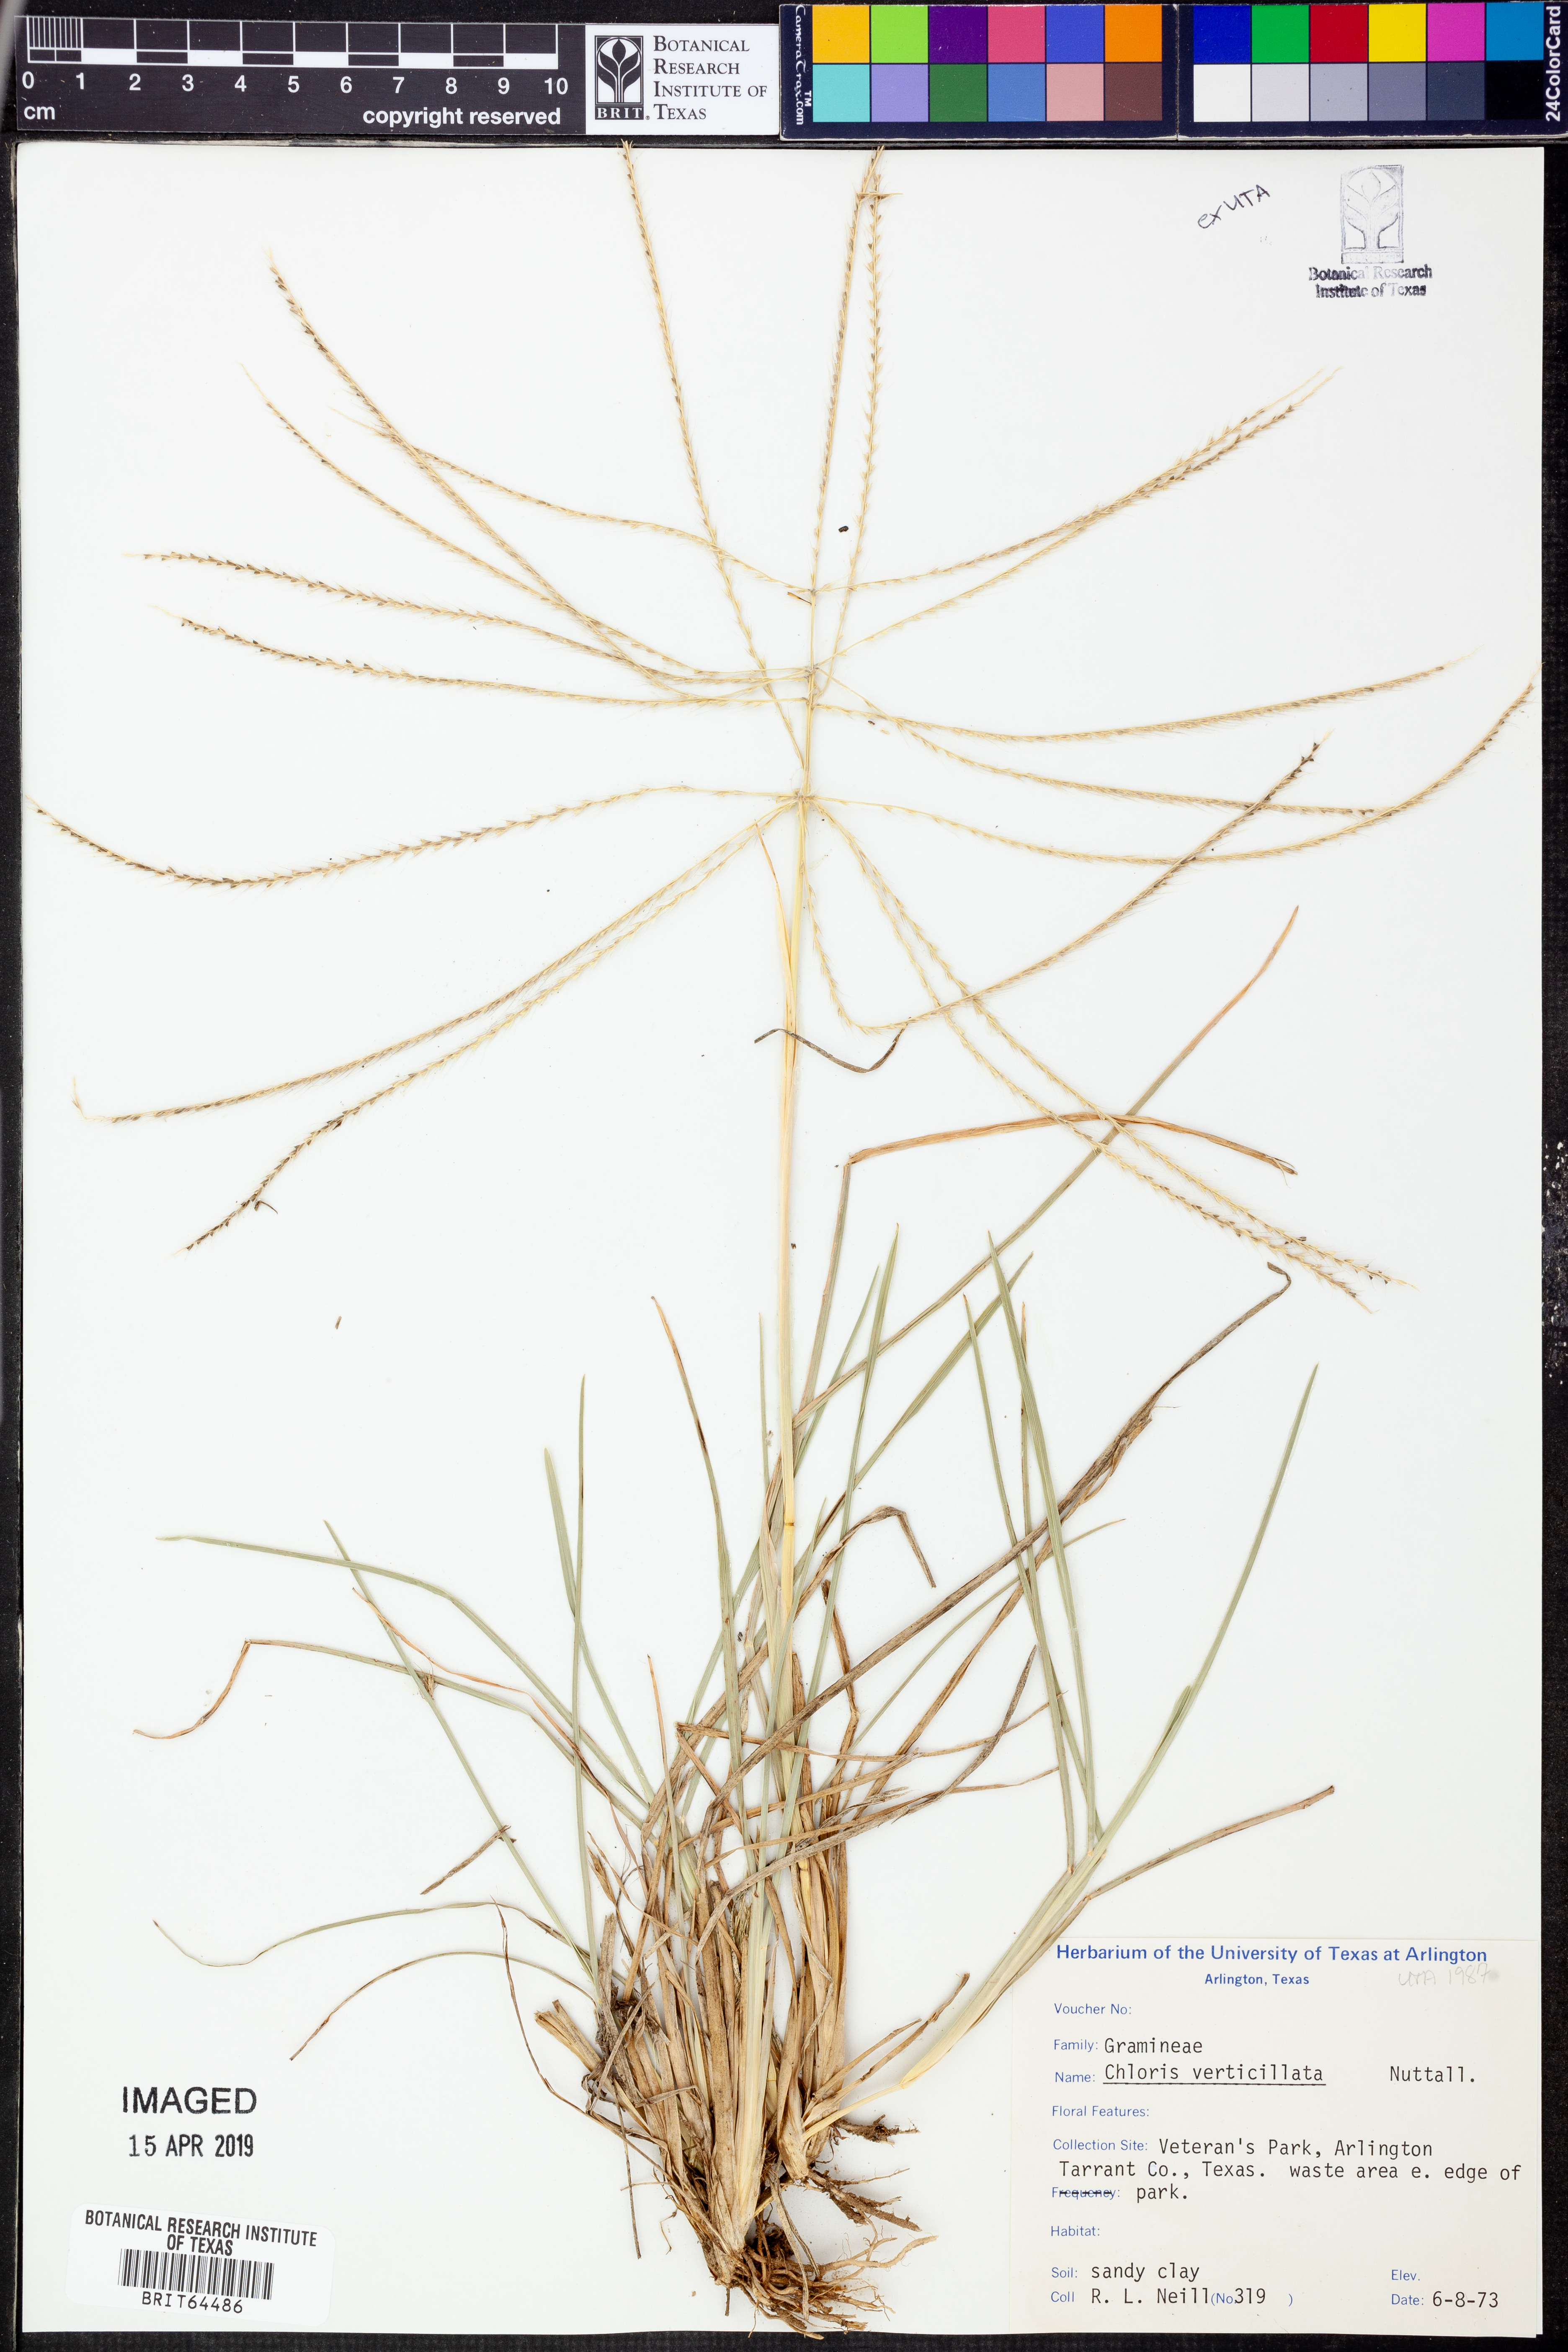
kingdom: Plantae
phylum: Tracheophyta
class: Liliopsida
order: Poales
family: Poaceae
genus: Chloris
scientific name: Chloris verticillata
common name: Tumble windmill grass
